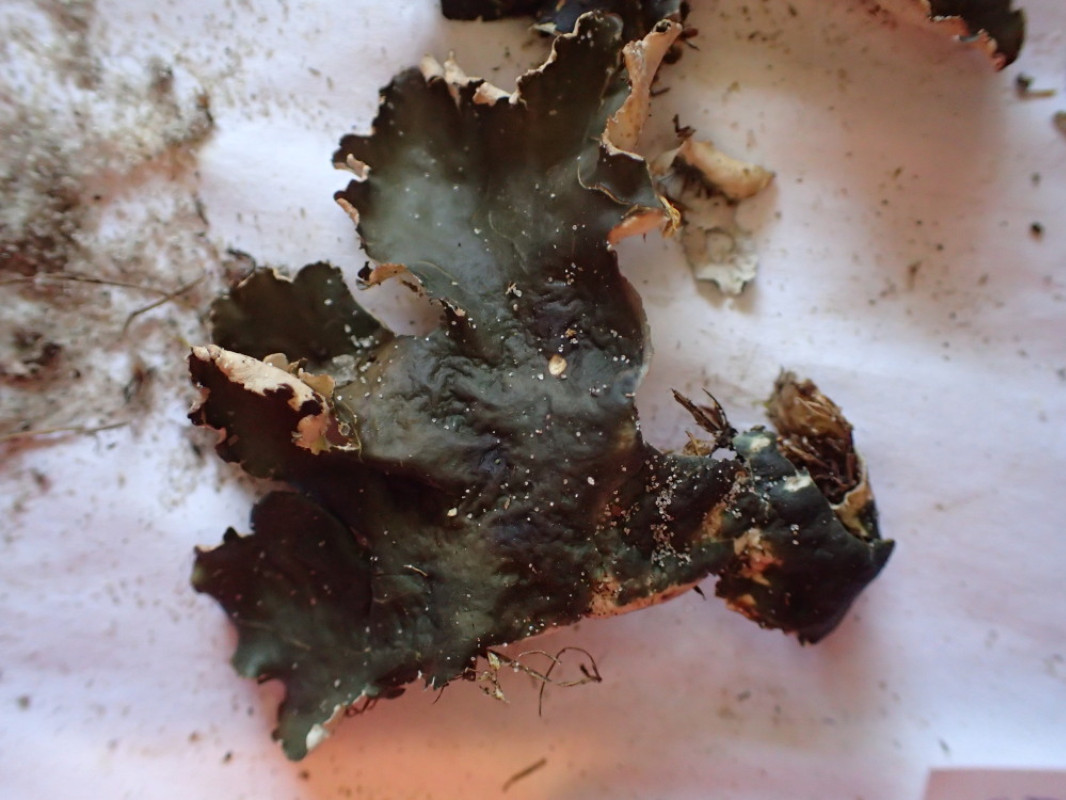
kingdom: Fungi
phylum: Ascomycota
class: Lecanoromycetes
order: Peltigerales
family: Peltigeraceae
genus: Peltigera
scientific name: Peltigera hymenina
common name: hinde-skjoldlav
